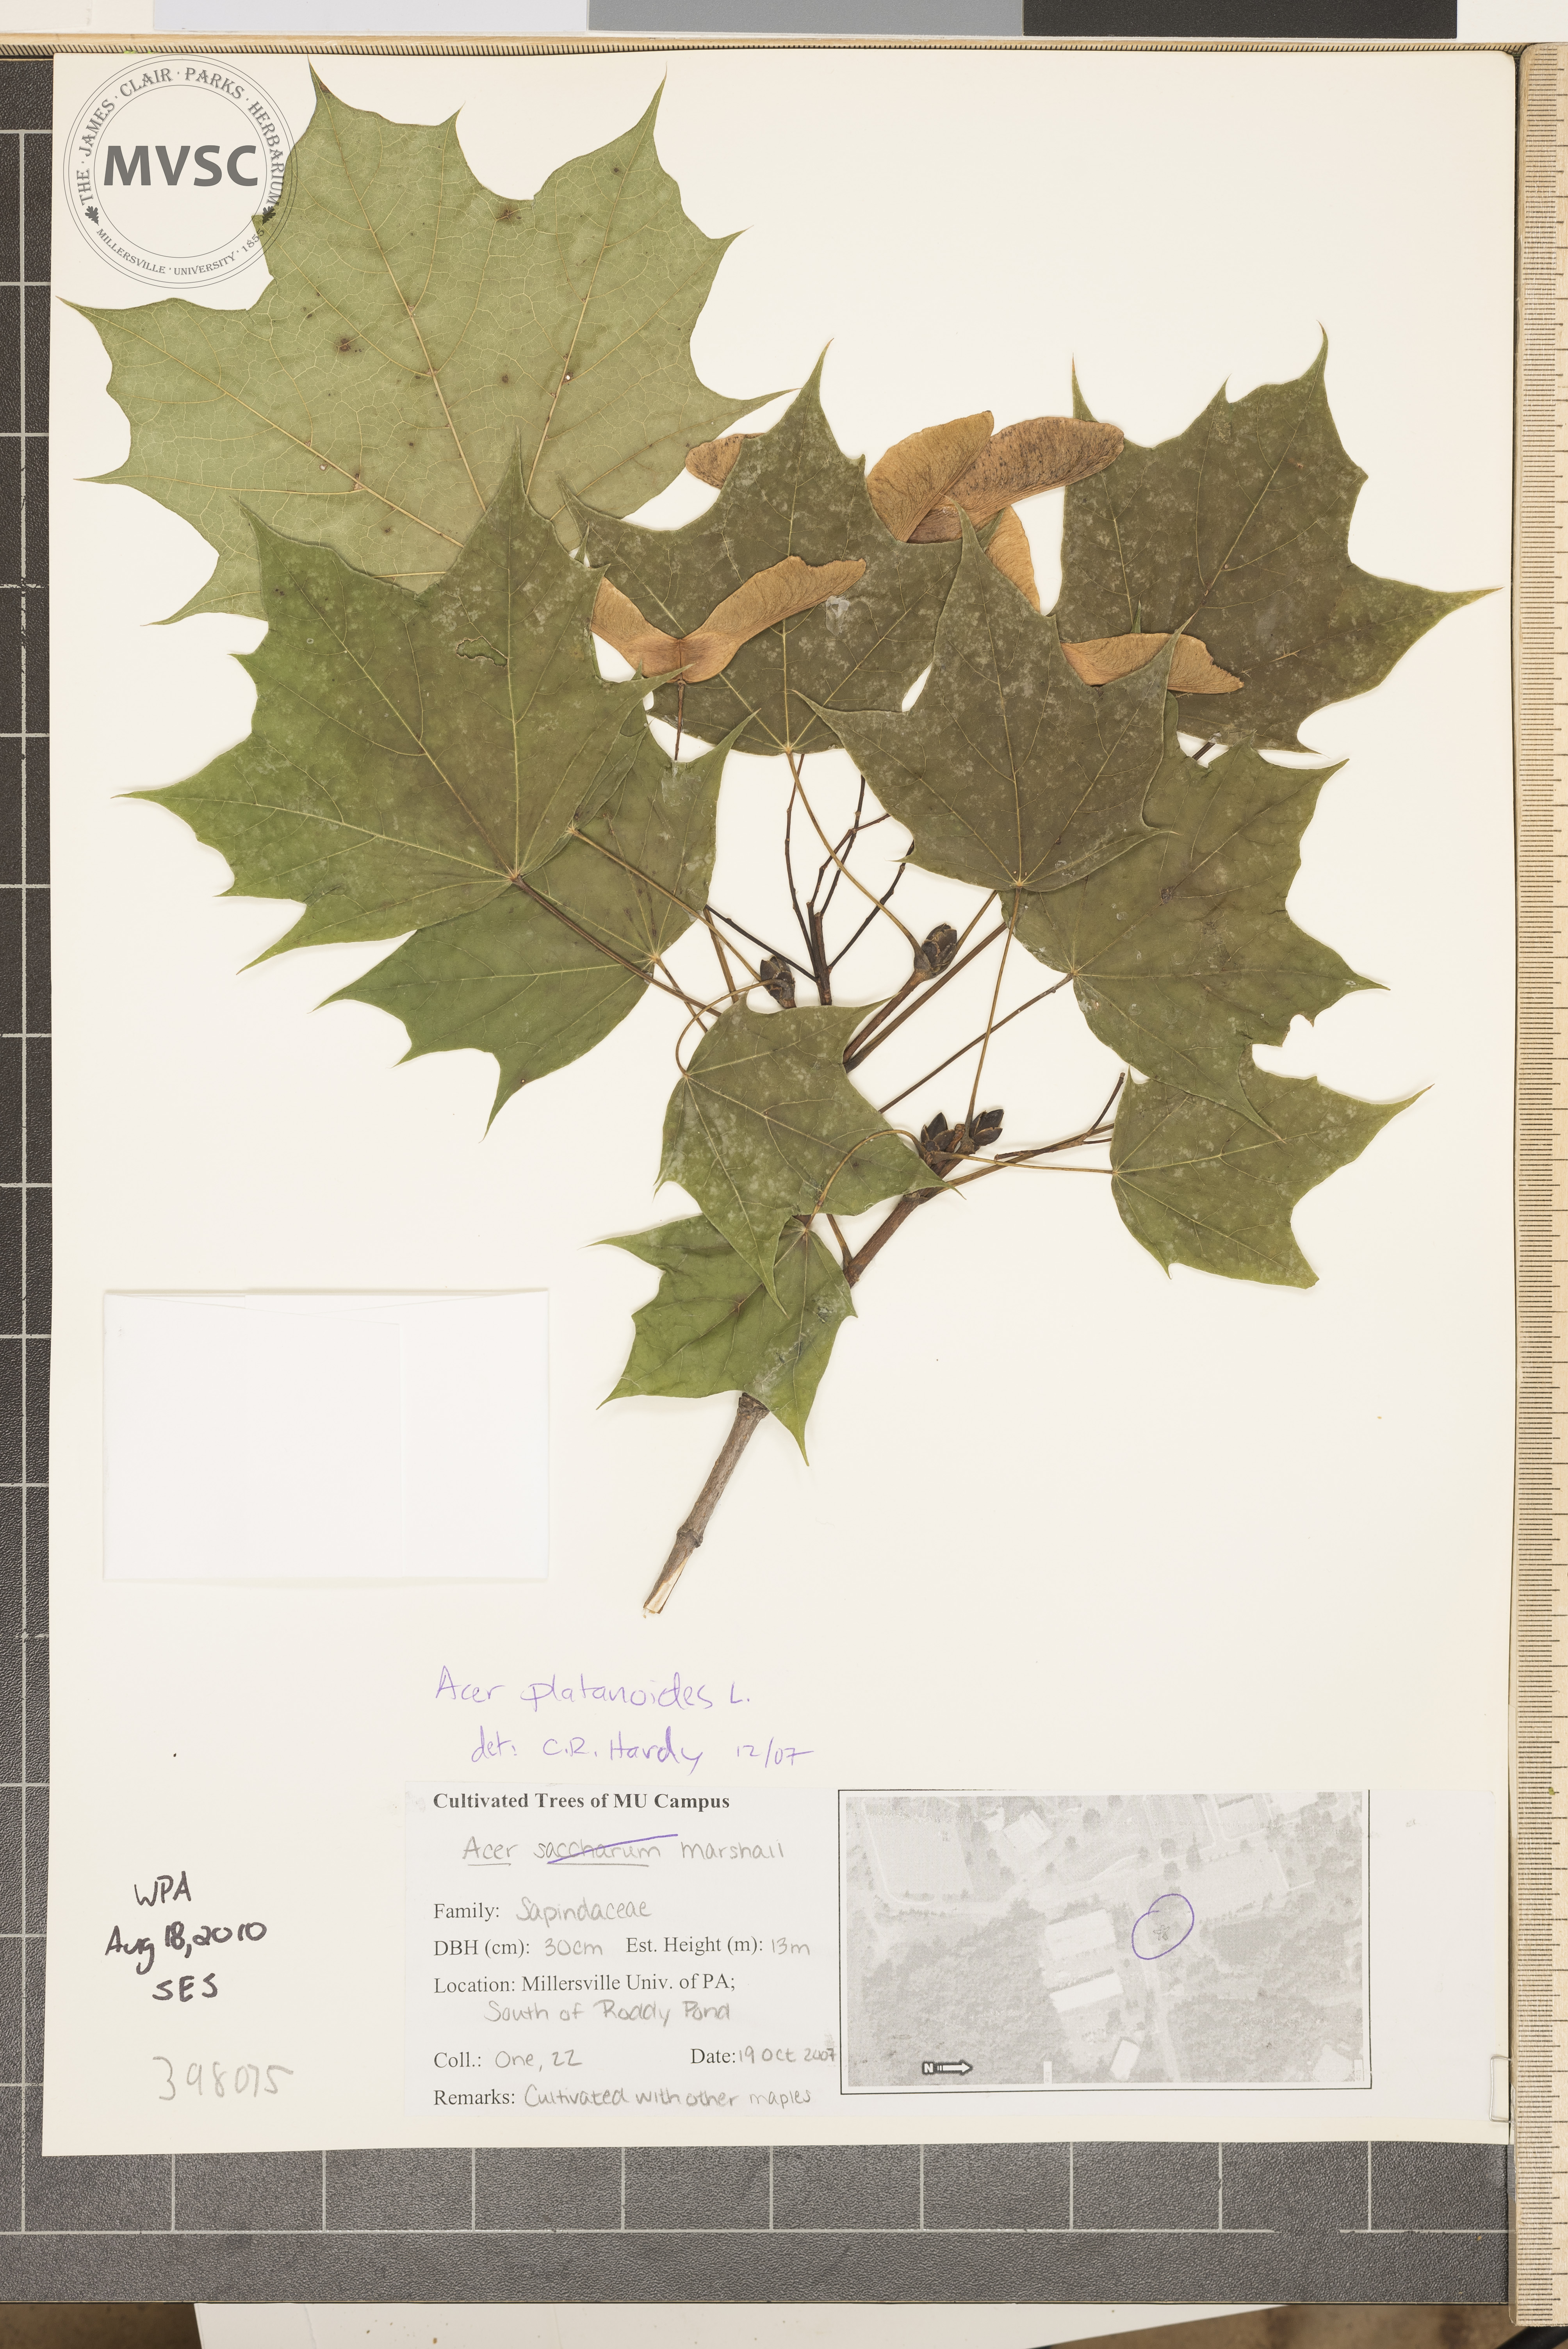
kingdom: Plantae
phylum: Tracheophyta
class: Magnoliopsida
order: Sapindales
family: Sapindaceae
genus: Acer
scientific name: Acer platanoides
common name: Norway maple
